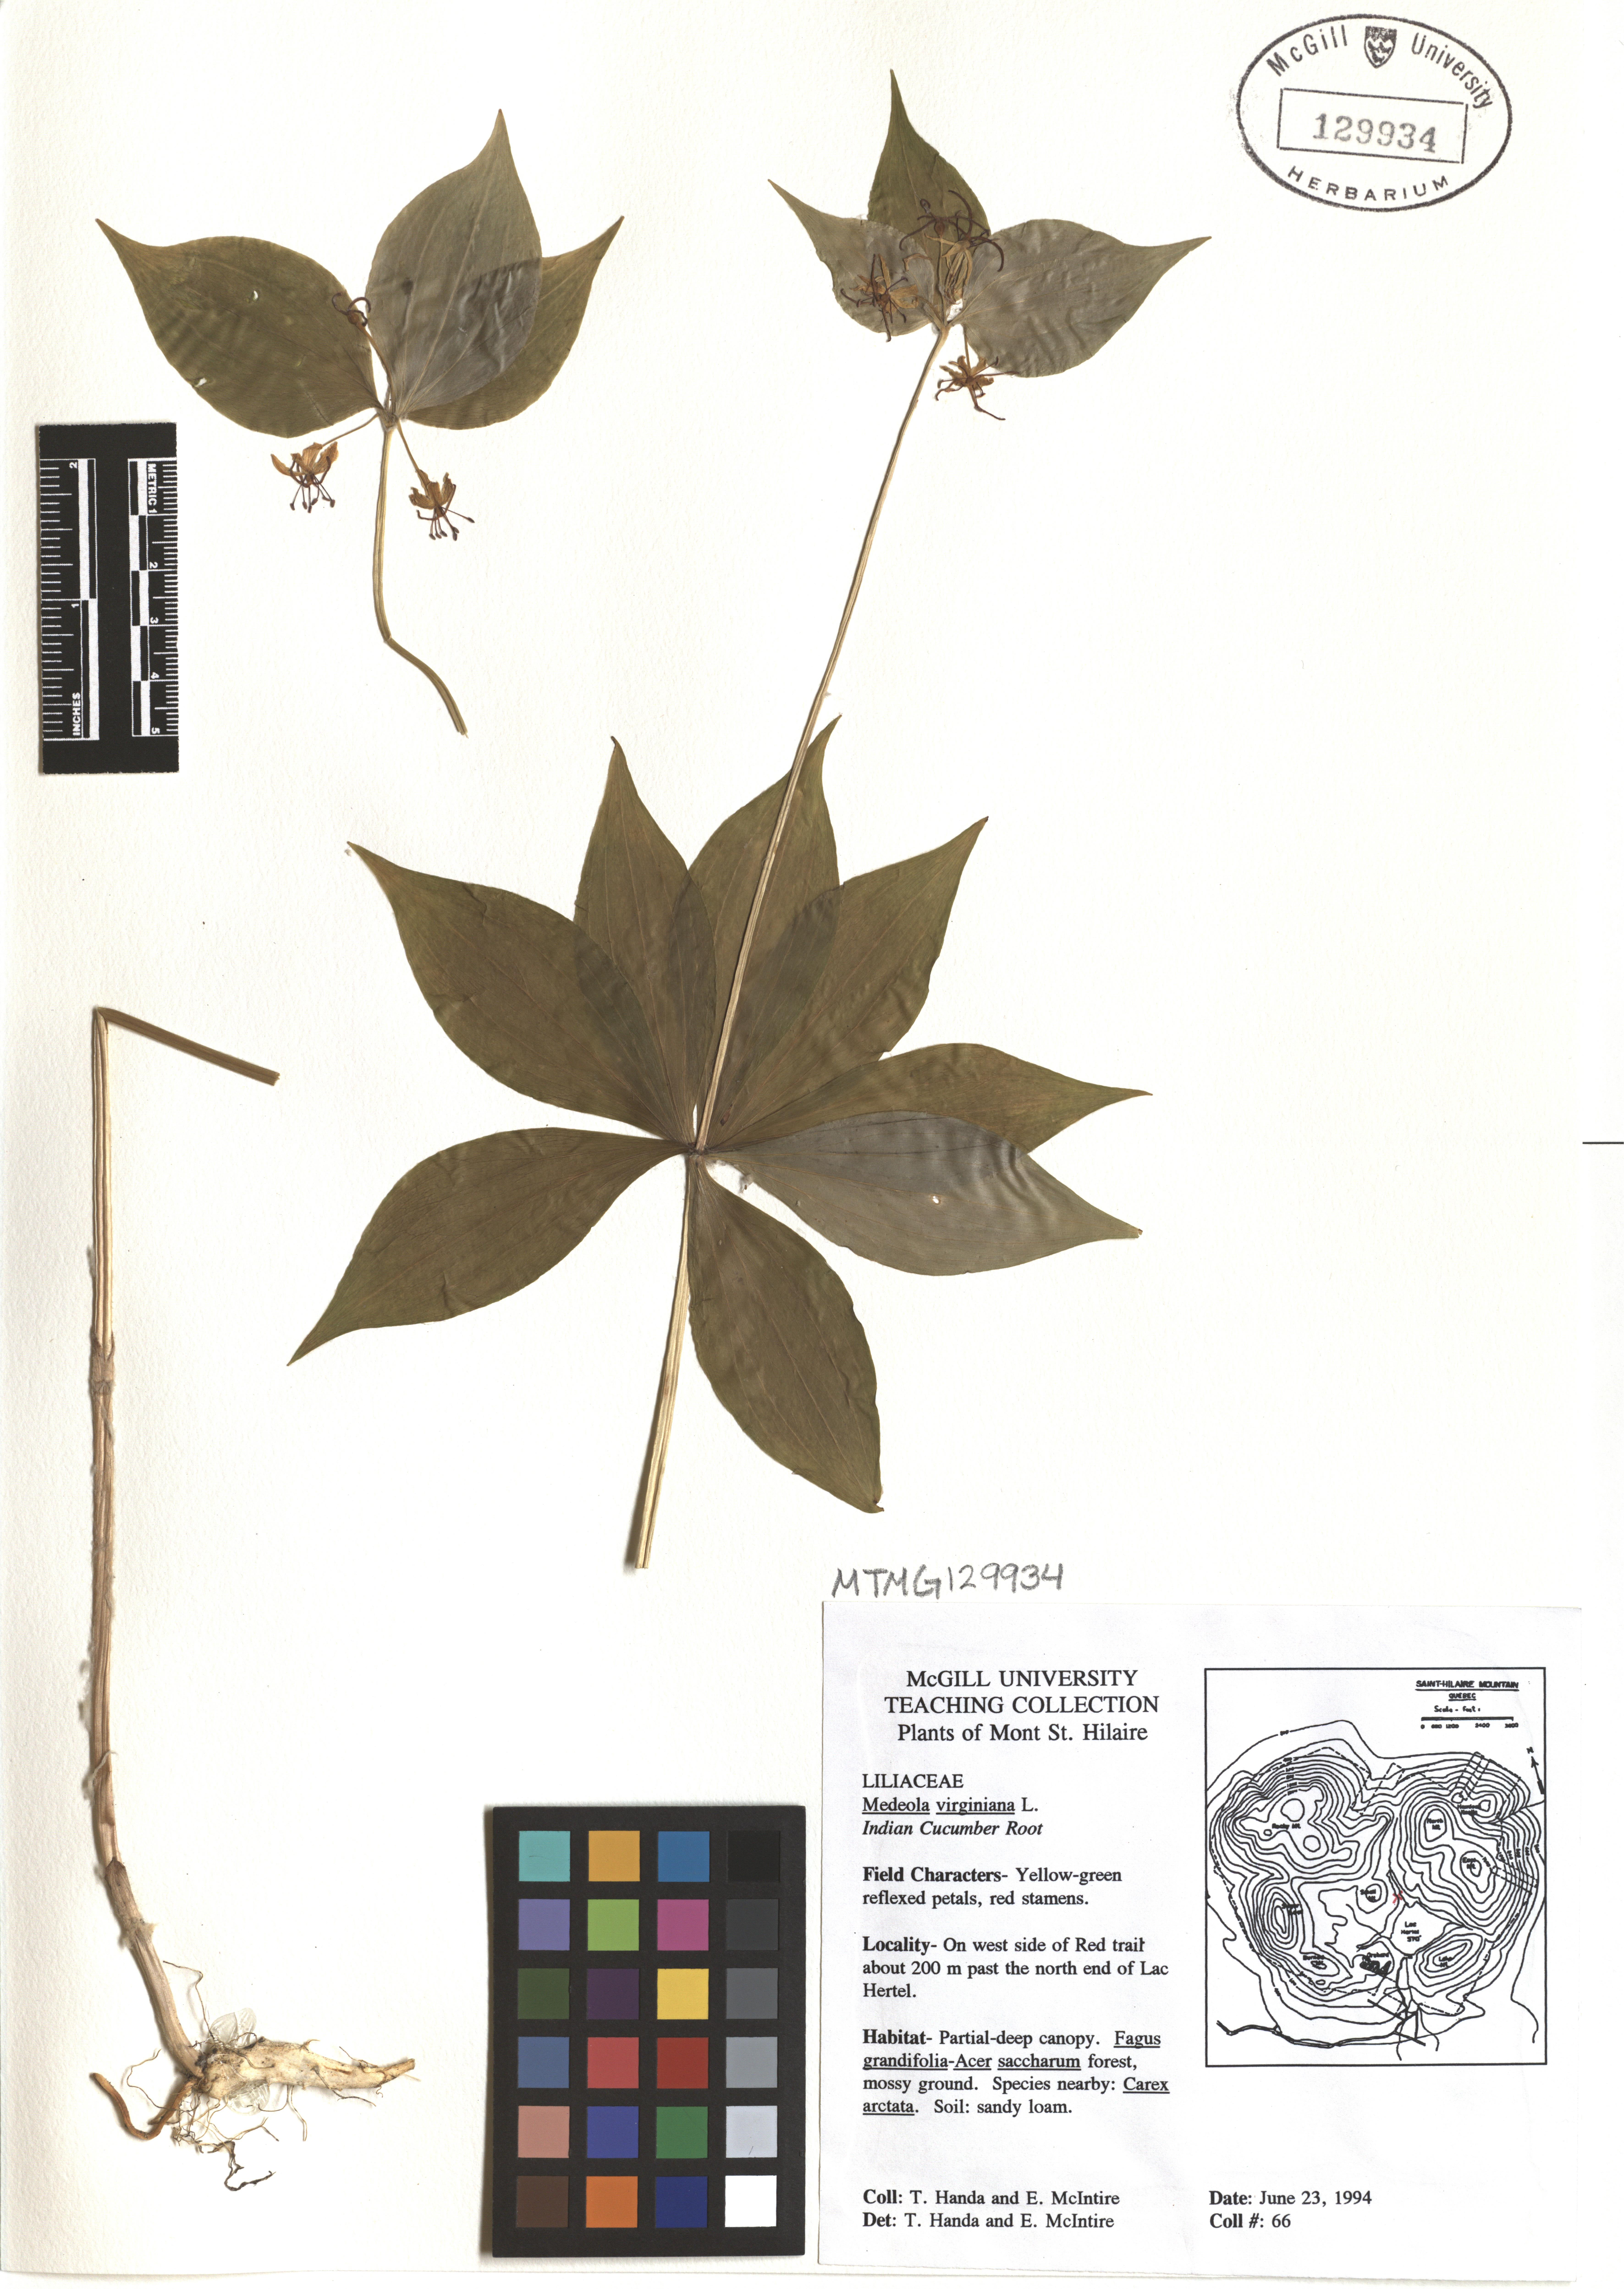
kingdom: Plantae
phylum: Tracheophyta
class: Liliopsida
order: Liliales
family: Liliaceae
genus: Medeola
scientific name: Medeola virginiana
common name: Indian cucumber-root
